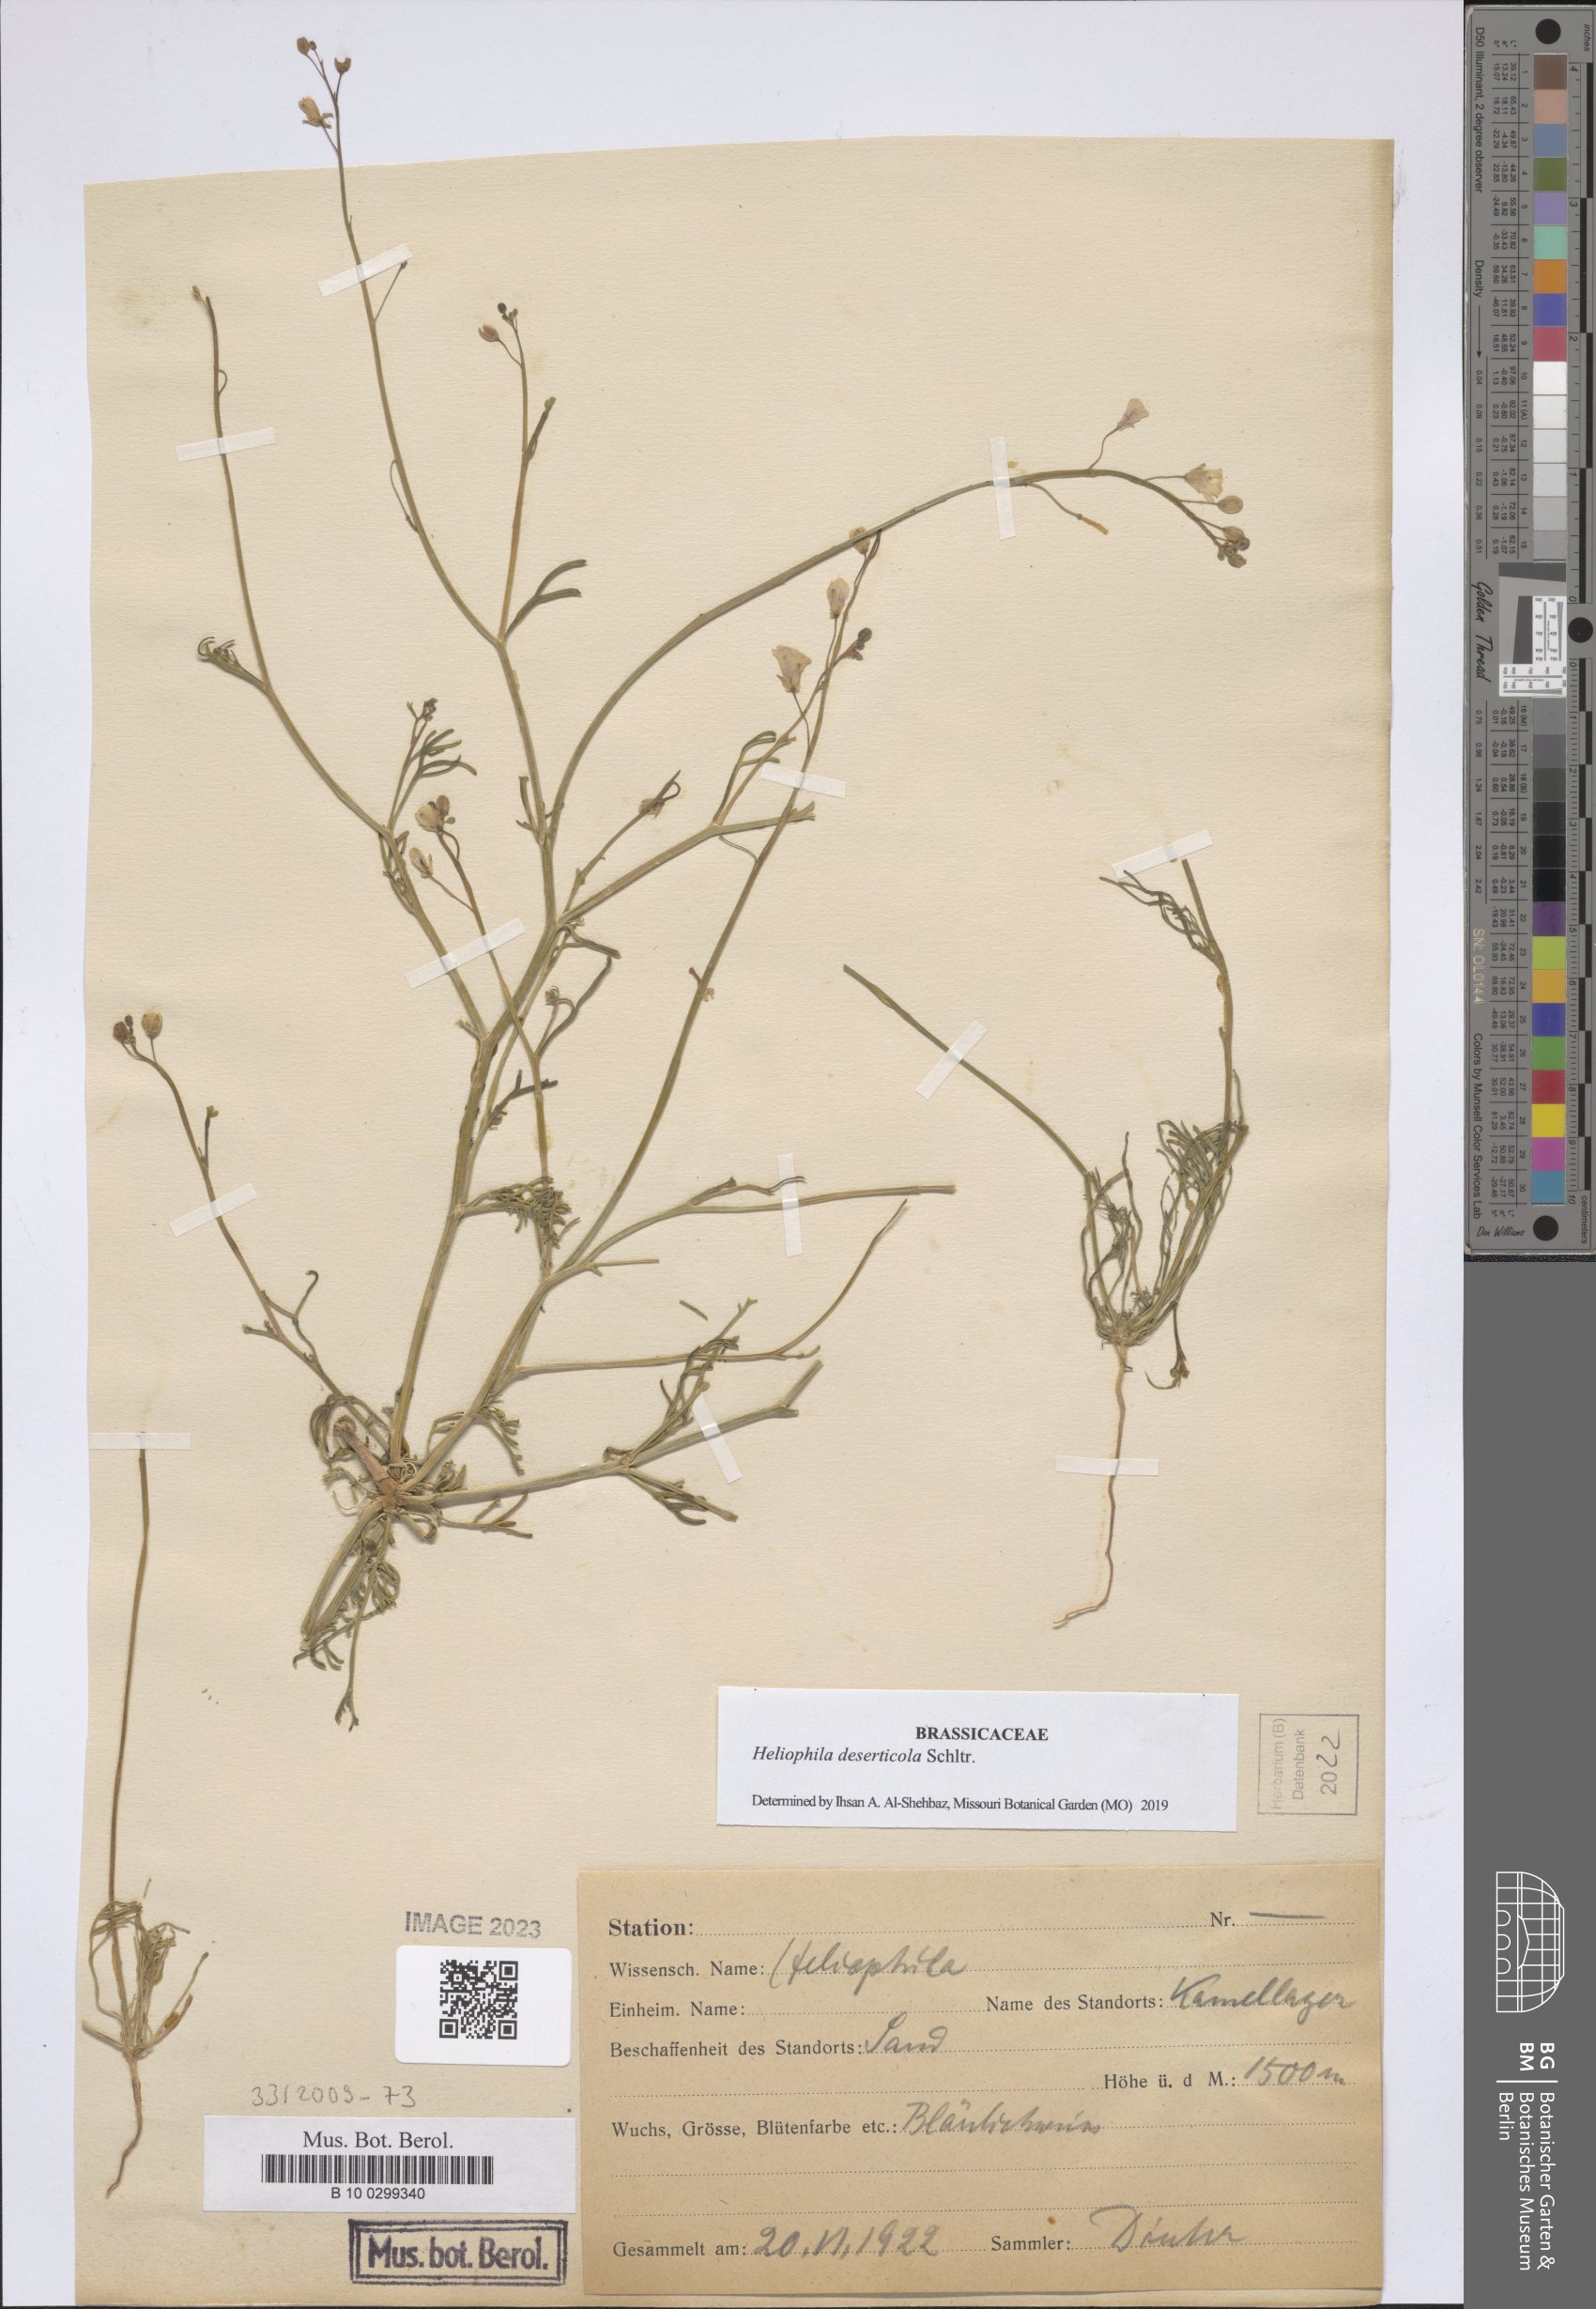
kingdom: Plantae
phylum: Tracheophyta
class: Magnoliopsida
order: Brassicales
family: Brassicaceae
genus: Heliophila
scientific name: Heliophila deserticola
